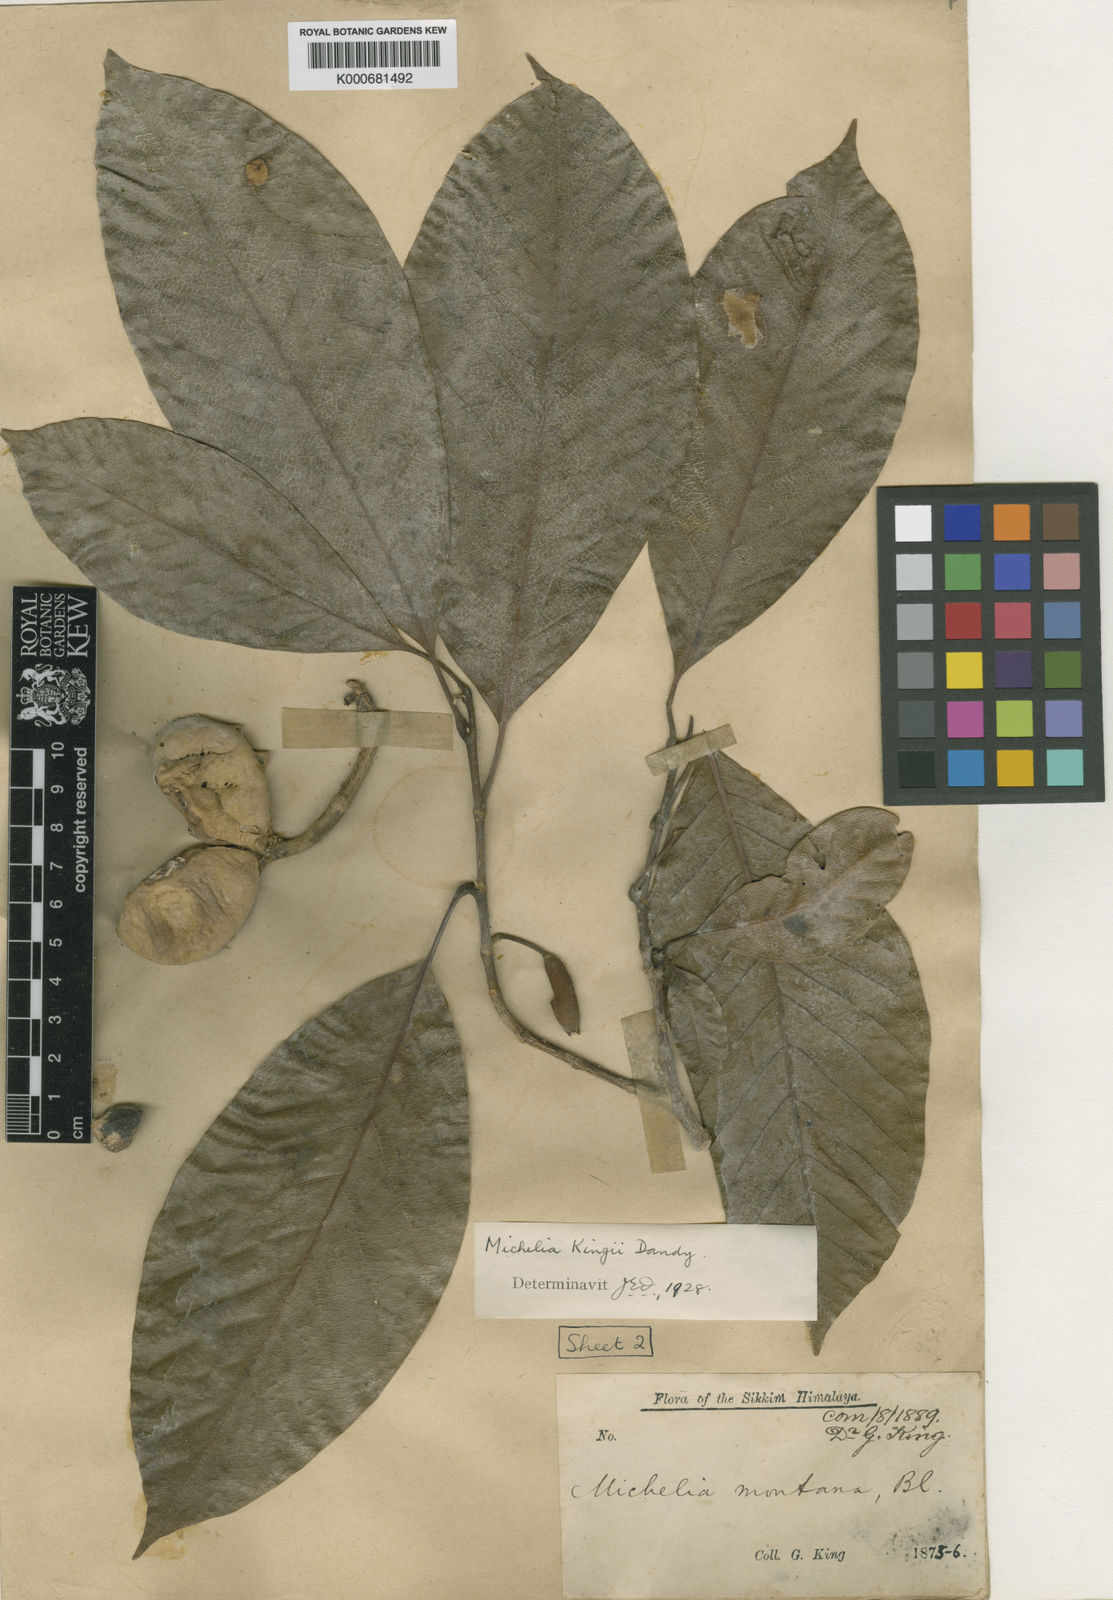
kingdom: Plantae
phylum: Tracheophyta
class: Magnoliopsida
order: Magnoliales
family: Magnoliaceae
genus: Magnolia
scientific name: Magnolia kingii
